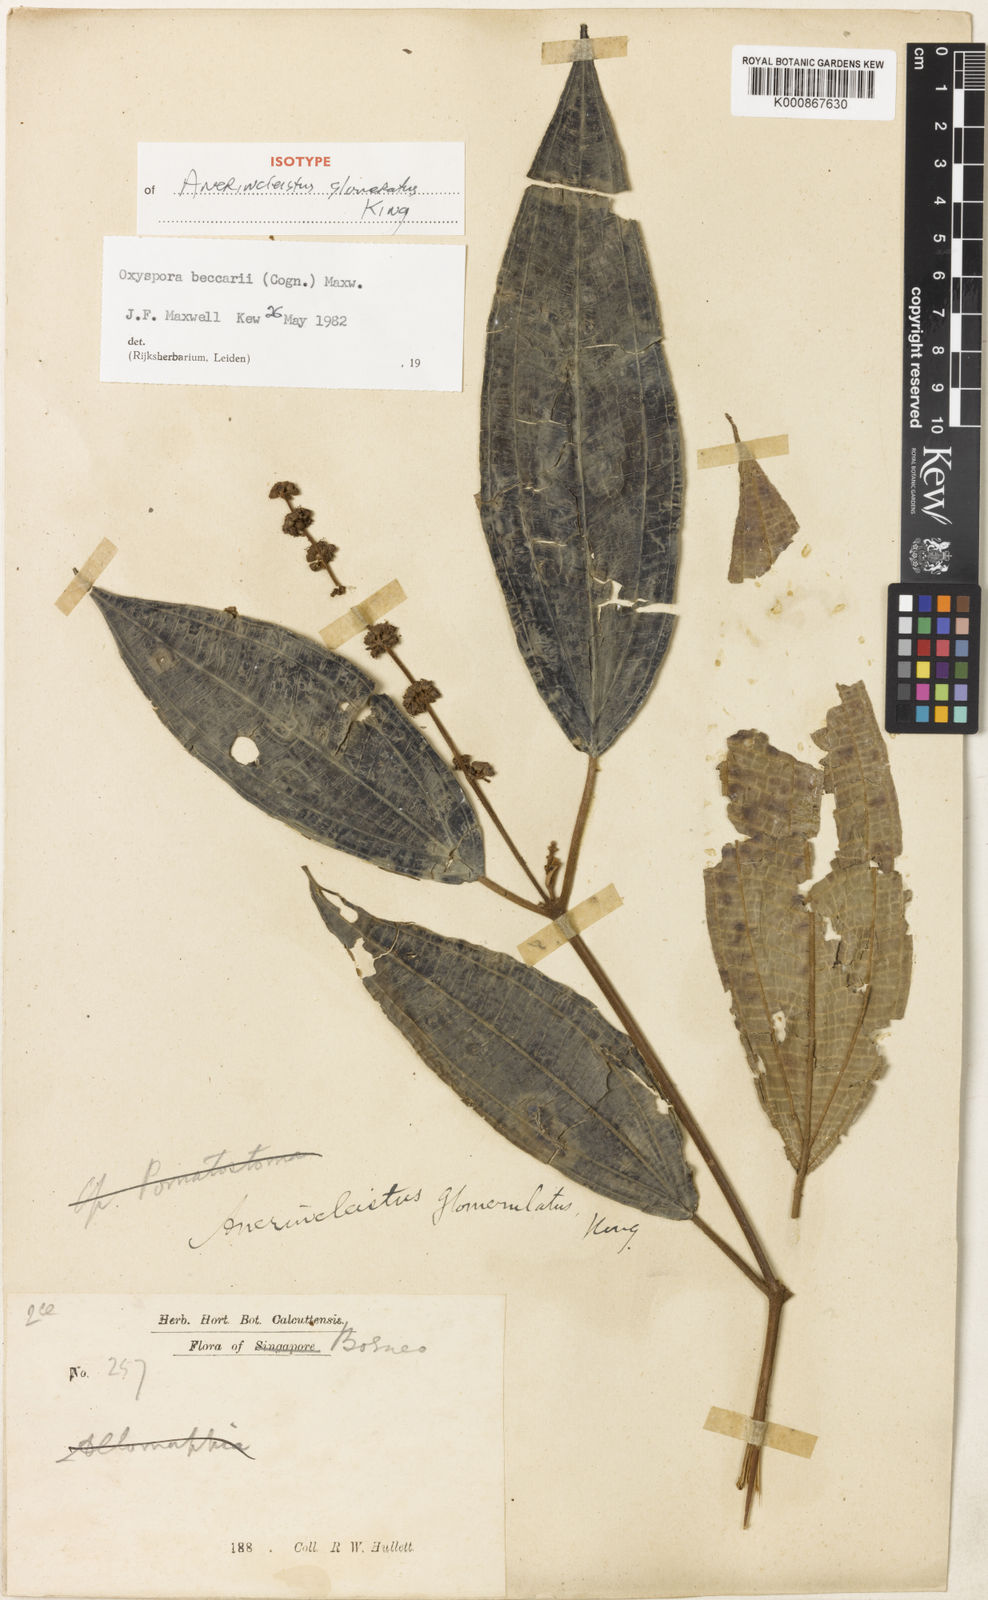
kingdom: Plantae
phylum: Tracheophyta
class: Magnoliopsida
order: Myrtales
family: Melastomataceae
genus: Oxyspora
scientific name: Oxyspora beccarii
